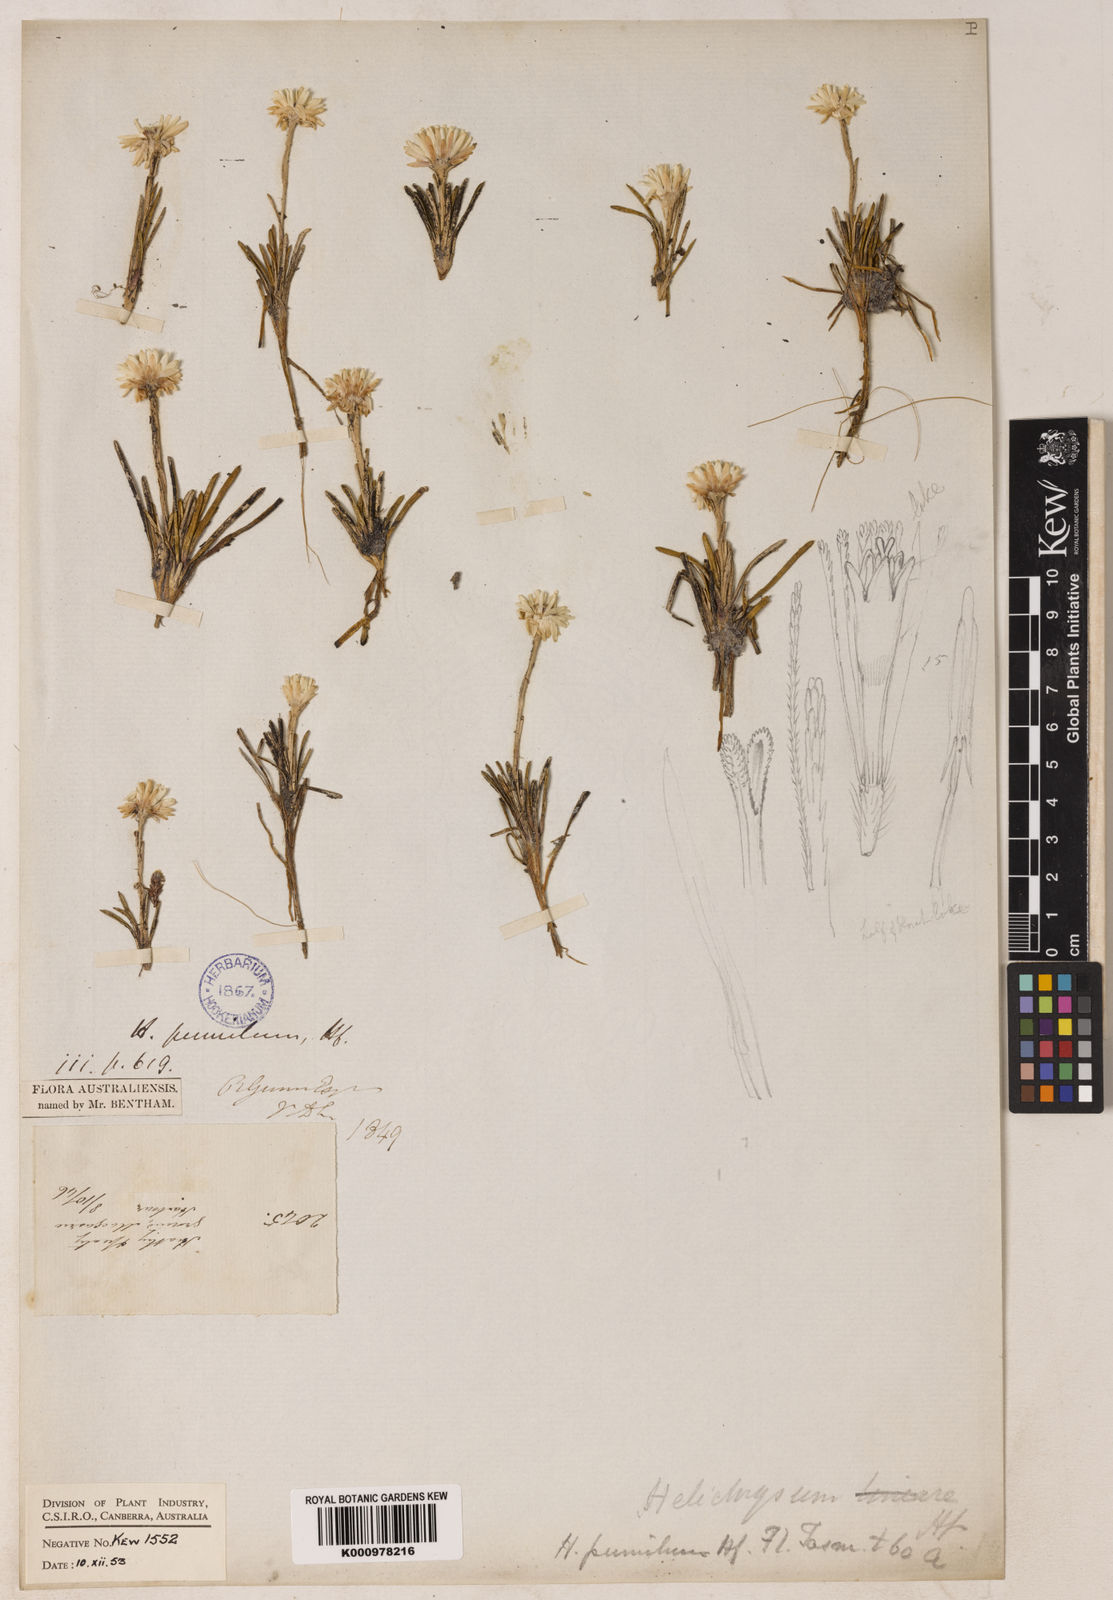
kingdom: Plantae
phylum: Tracheophyta
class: Magnoliopsida
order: Asterales
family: Asteraceae
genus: Helichrysum
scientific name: Helichrysum
